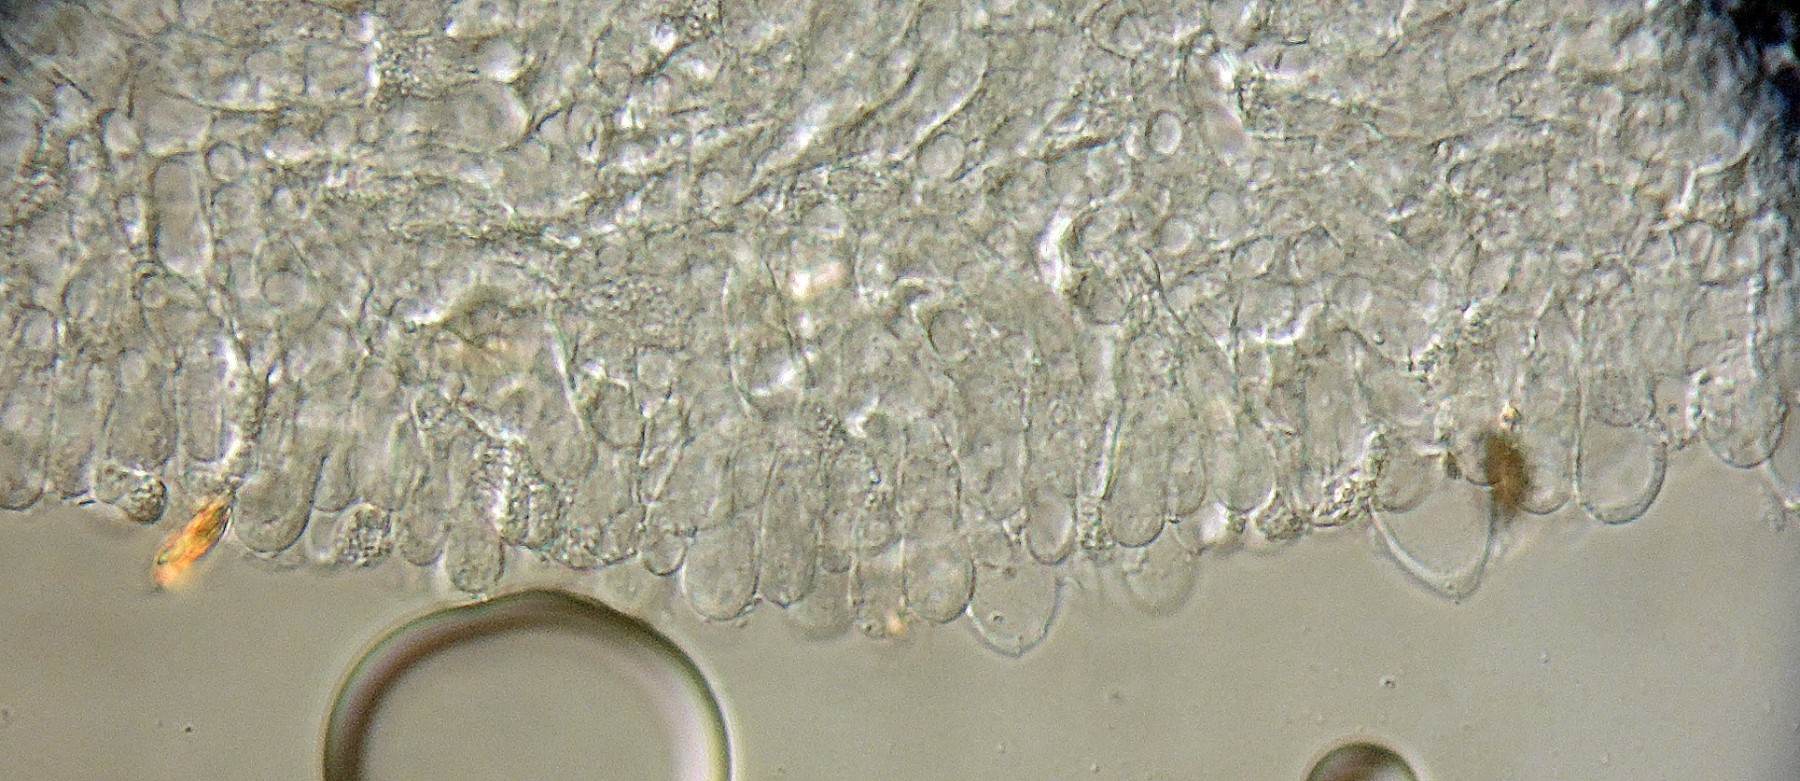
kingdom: Fungi
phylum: Basidiomycota
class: Agaricomycetes
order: Agaricales
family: Pluteaceae
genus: Pluteus
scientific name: Pluteus reisneri
